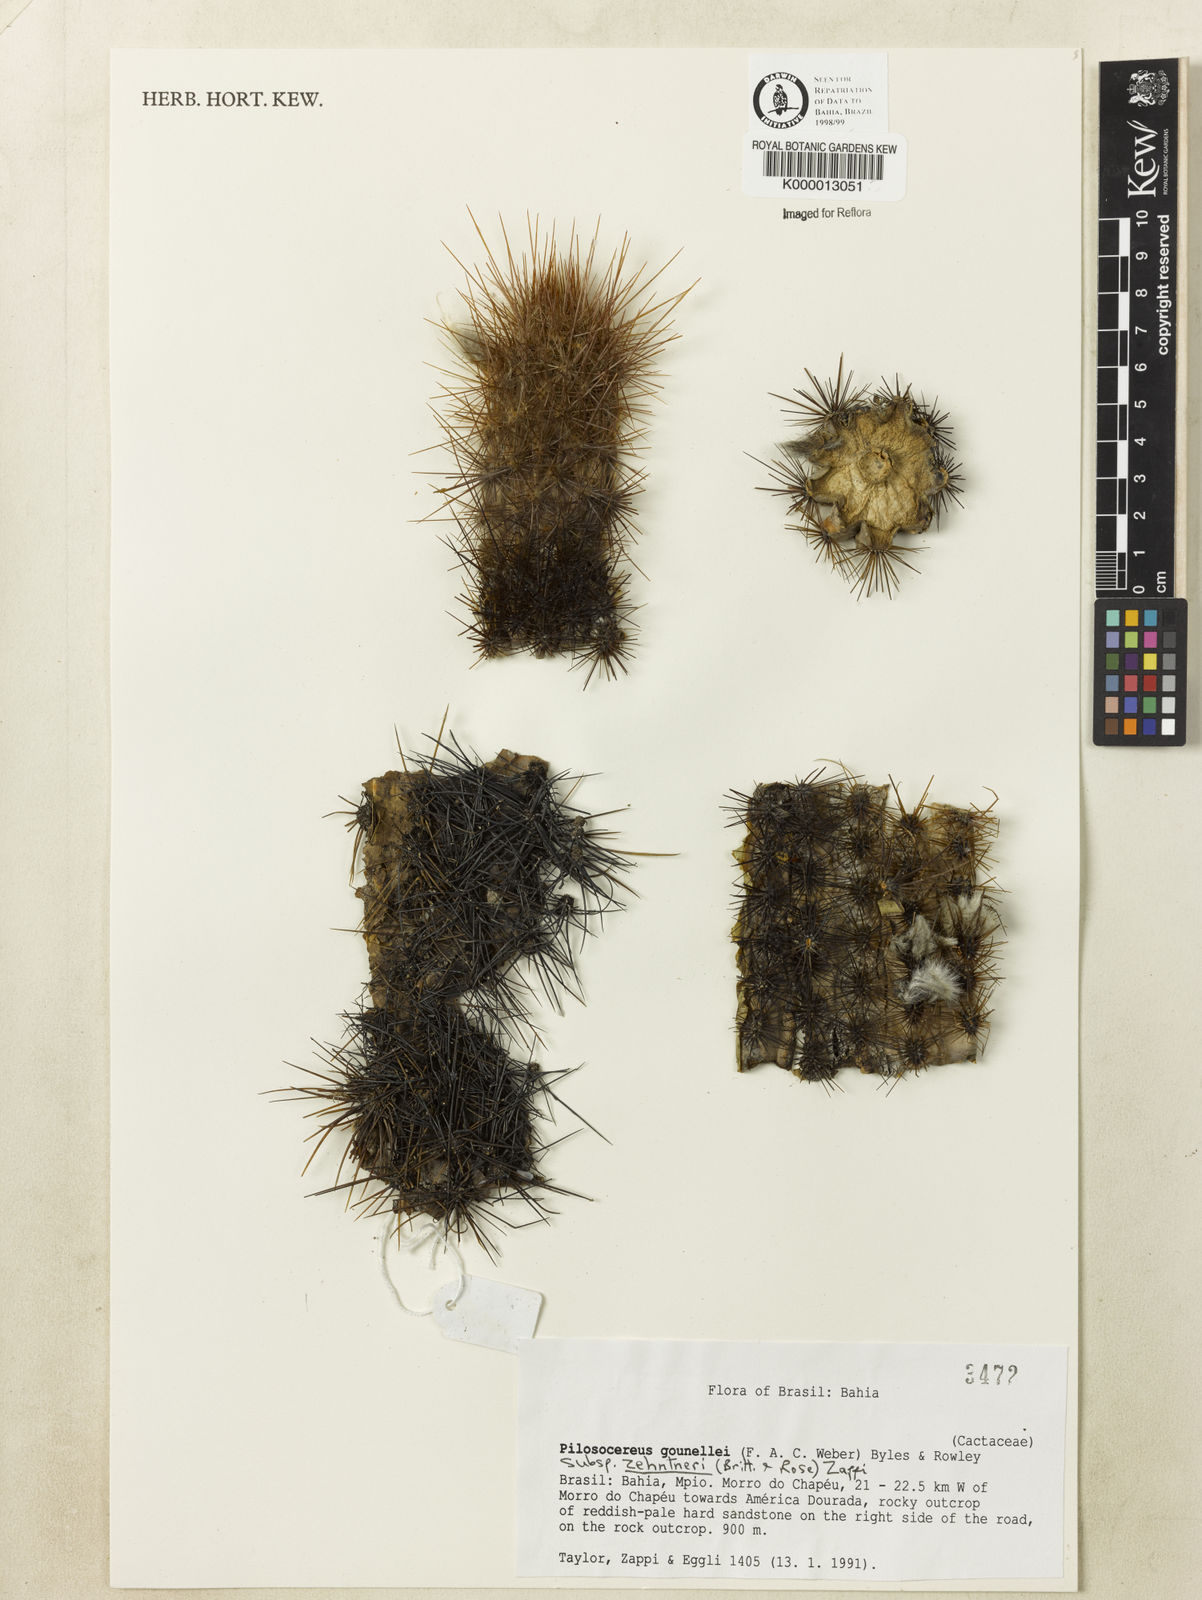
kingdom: Plantae
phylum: Tracheophyta
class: Magnoliopsida
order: Caryophyllales
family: Cactaceae
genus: Xiquexique
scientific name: Xiquexique gounellei
